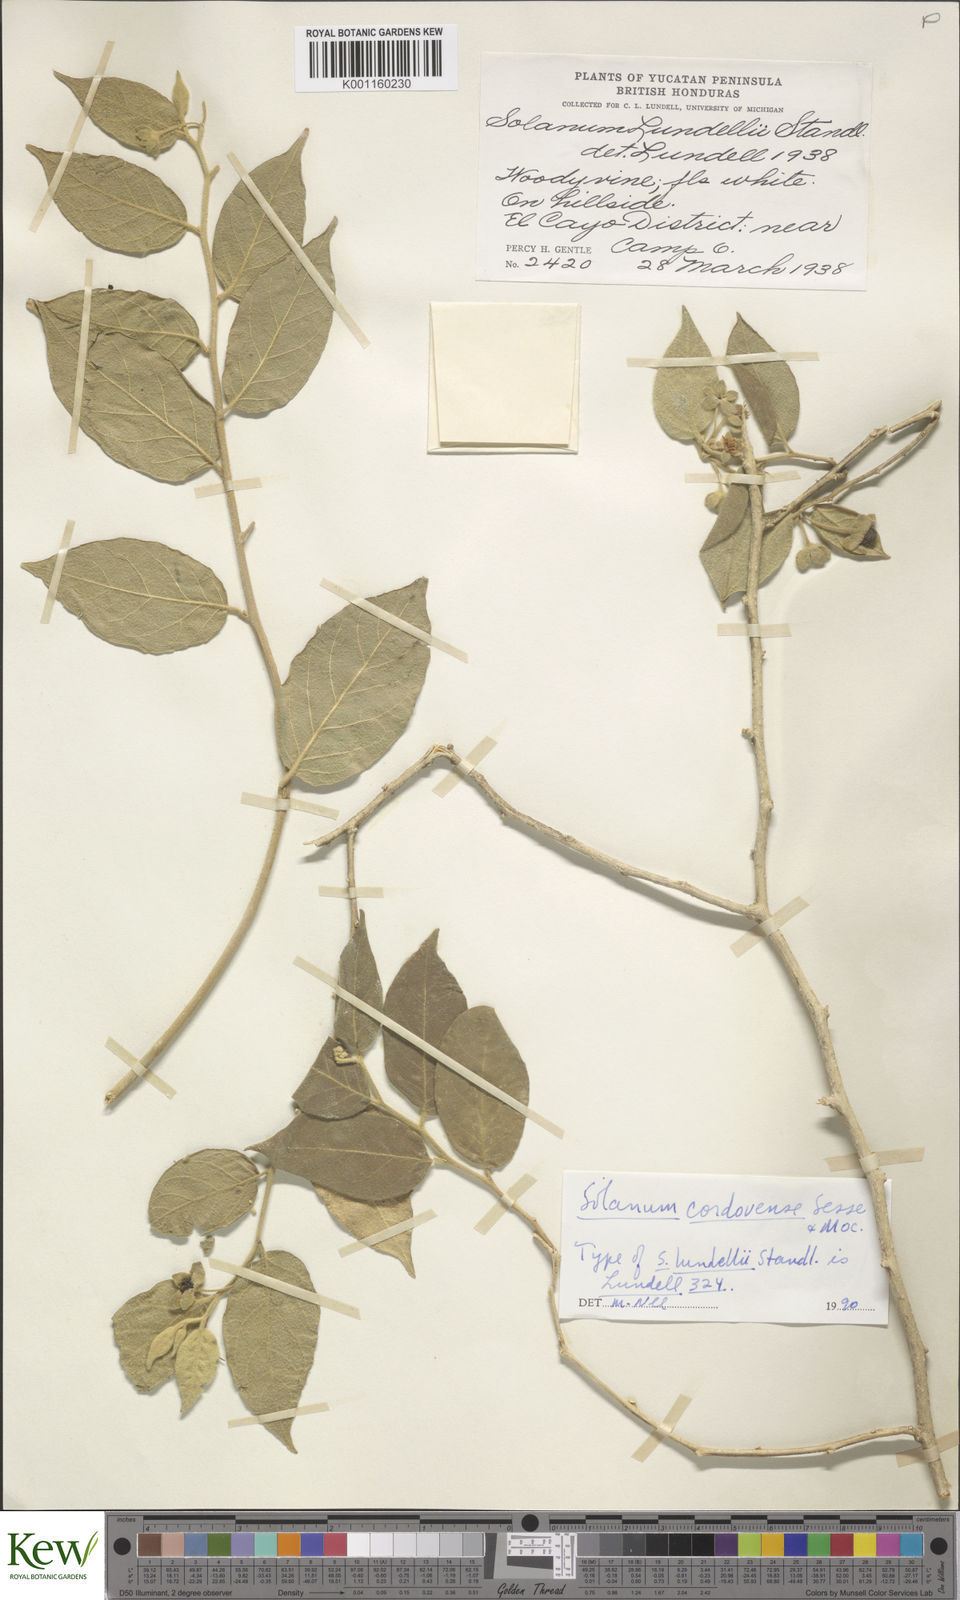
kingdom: Plantae
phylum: Tracheophyta
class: Magnoliopsida
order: Solanales
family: Solanaceae
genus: Solanum
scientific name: Solanum
